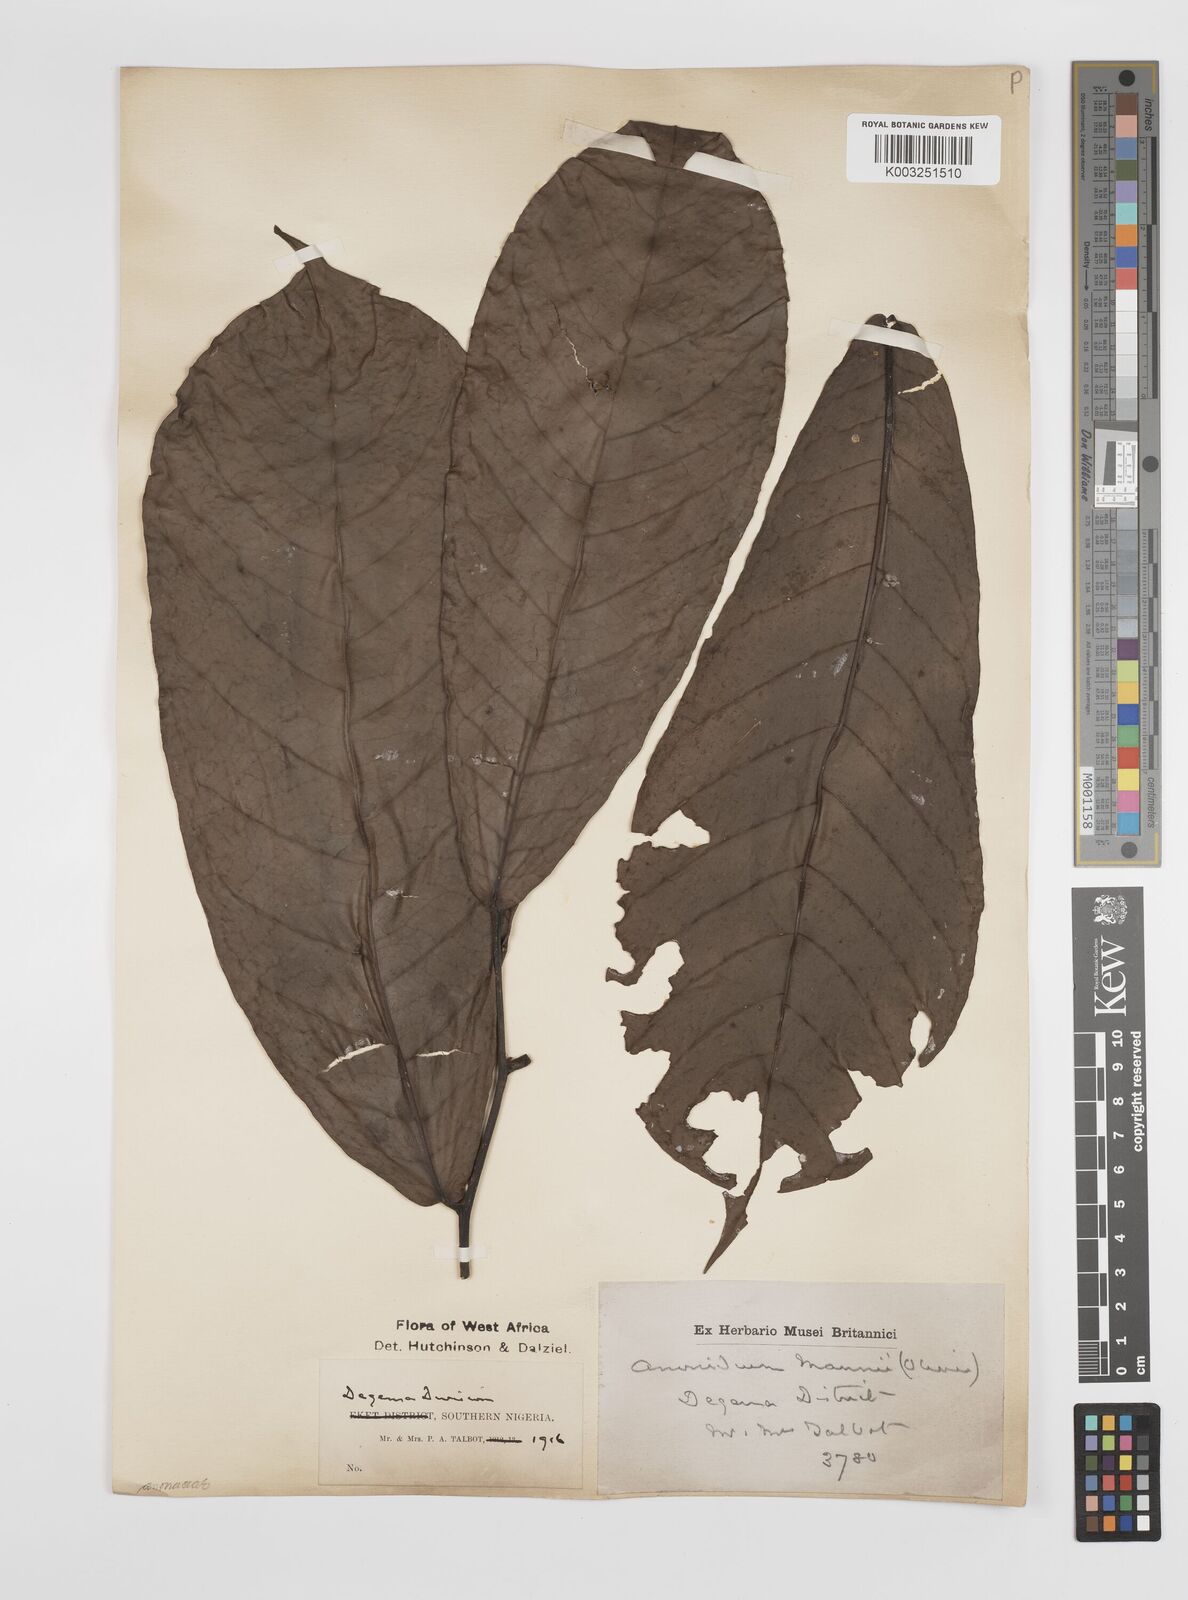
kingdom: Plantae
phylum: Tracheophyta
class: Magnoliopsida
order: Magnoliales
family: Annonaceae
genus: Anonidium
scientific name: Anonidium mannii
